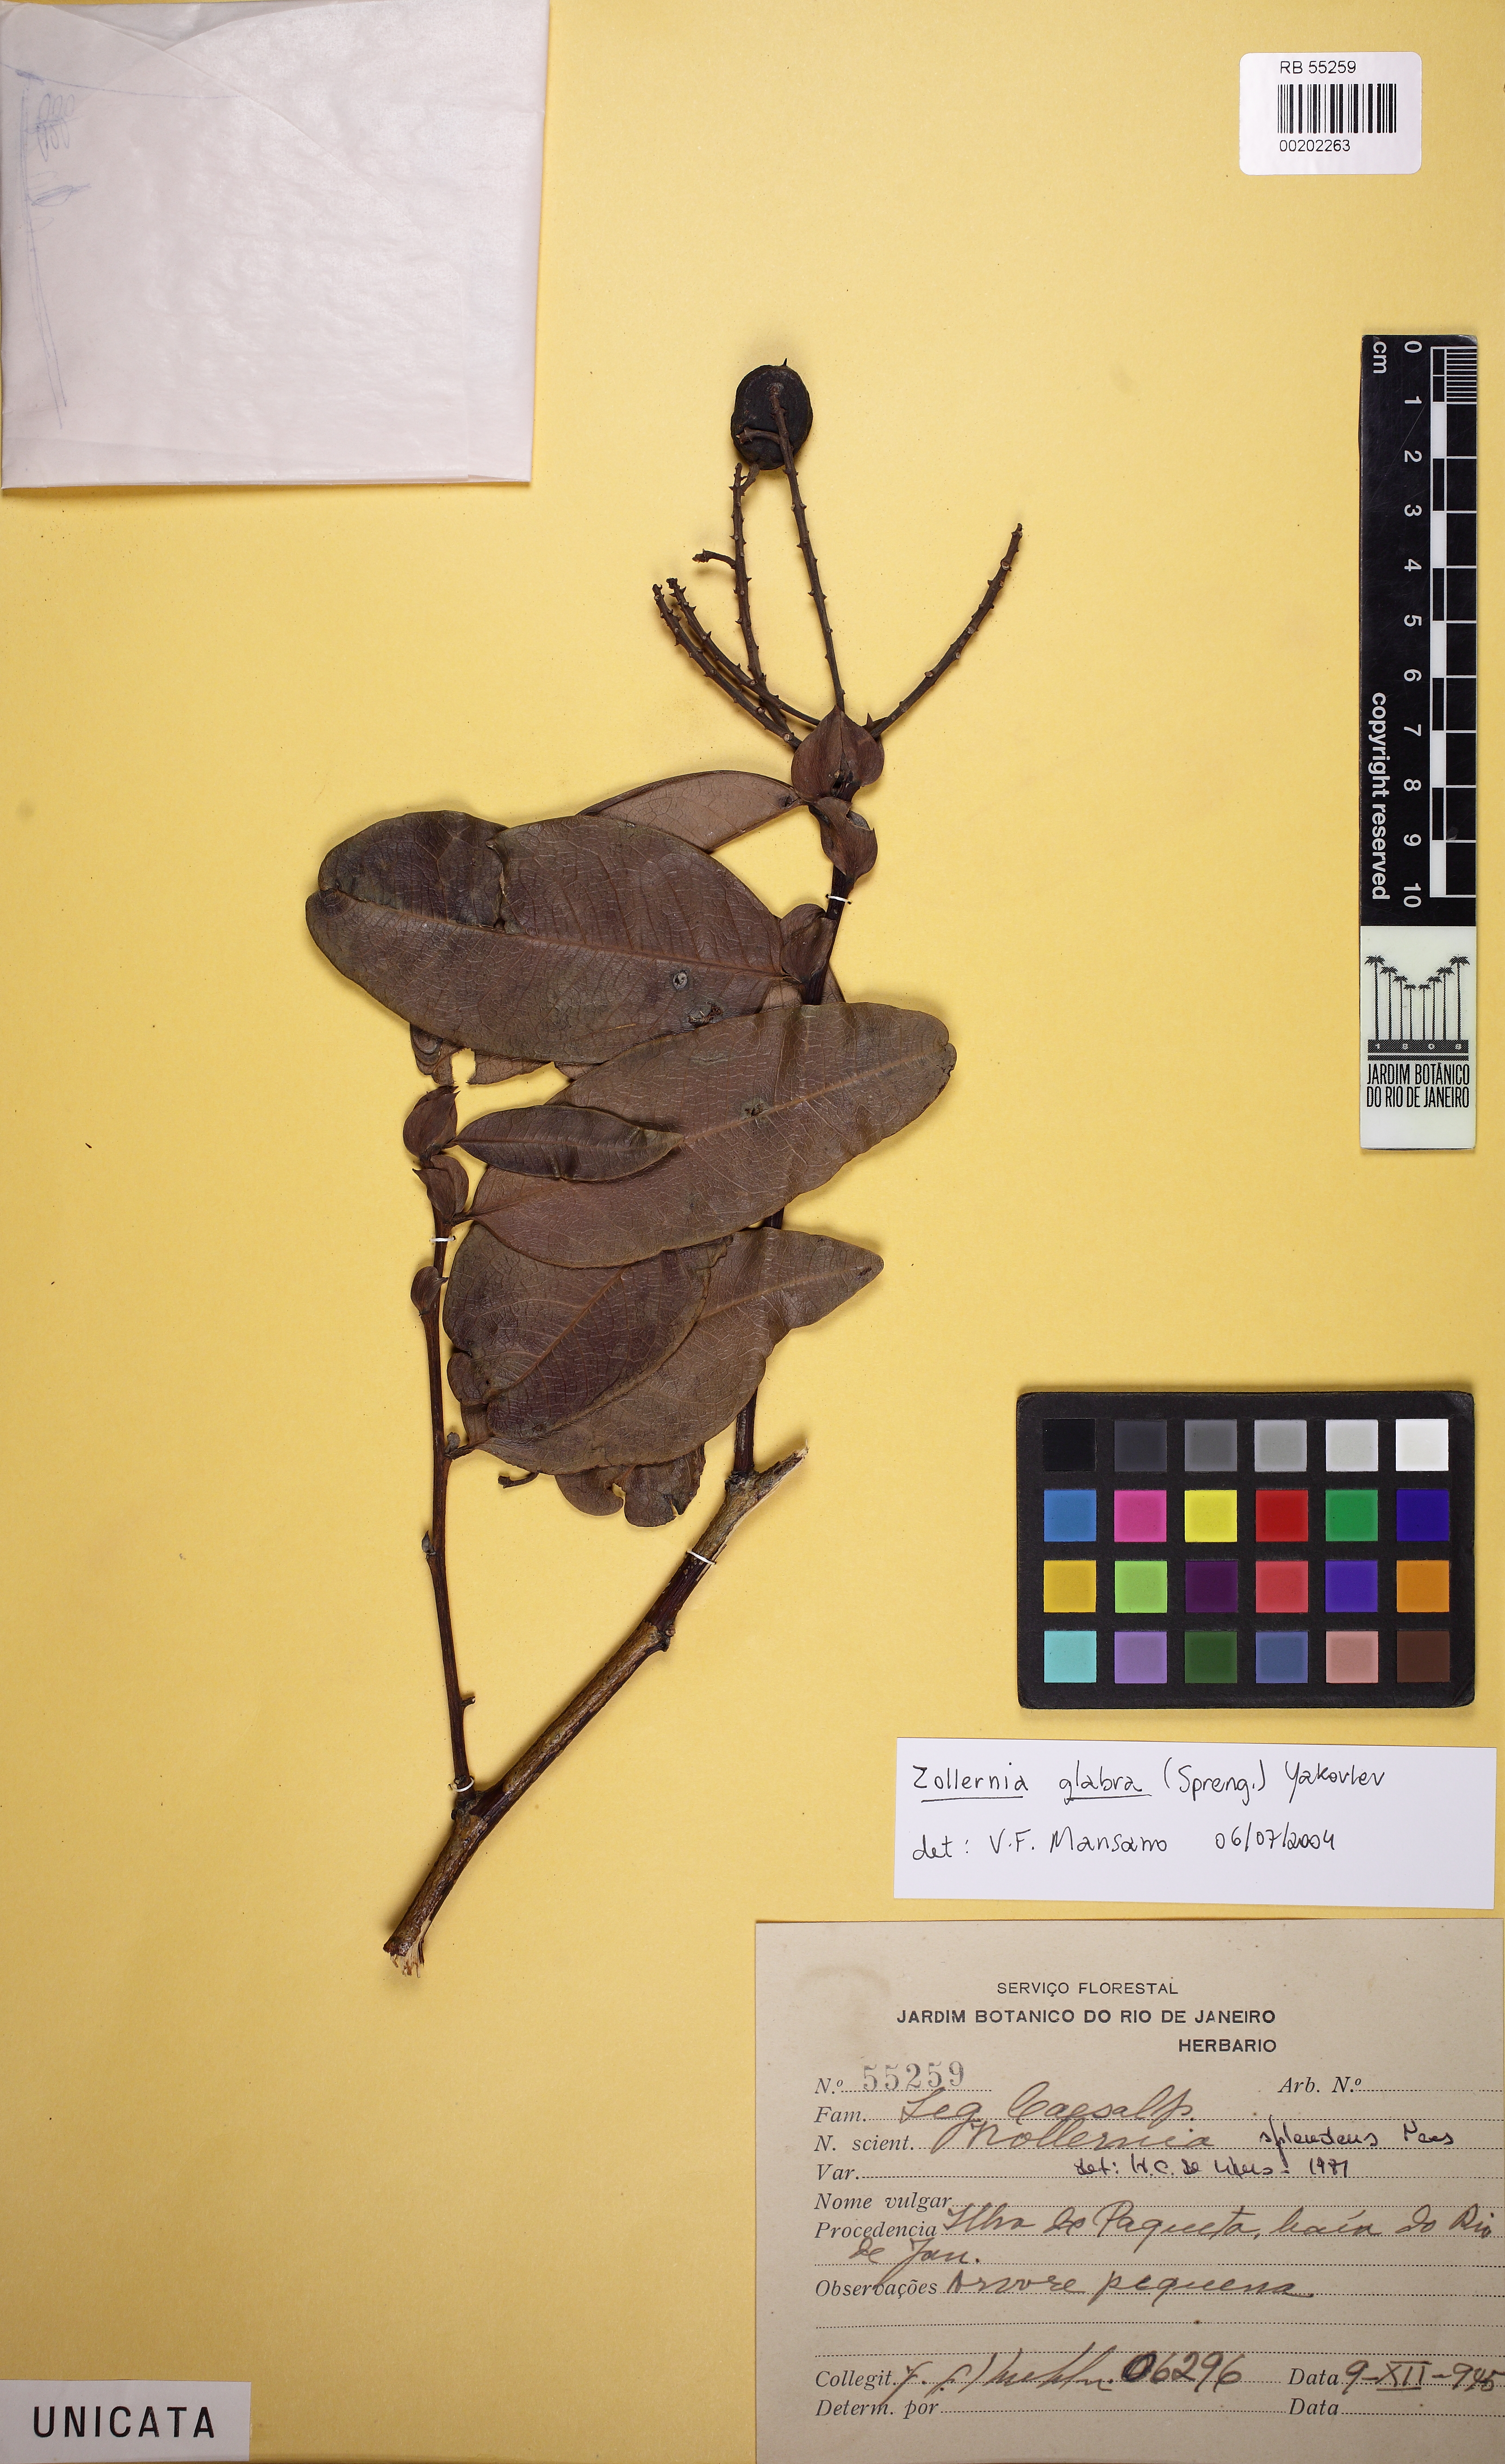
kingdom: Plantae
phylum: Tracheophyta
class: Magnoliopsida
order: Fabales
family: Fabaceae
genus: Zollernia
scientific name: Zollernia glabra
